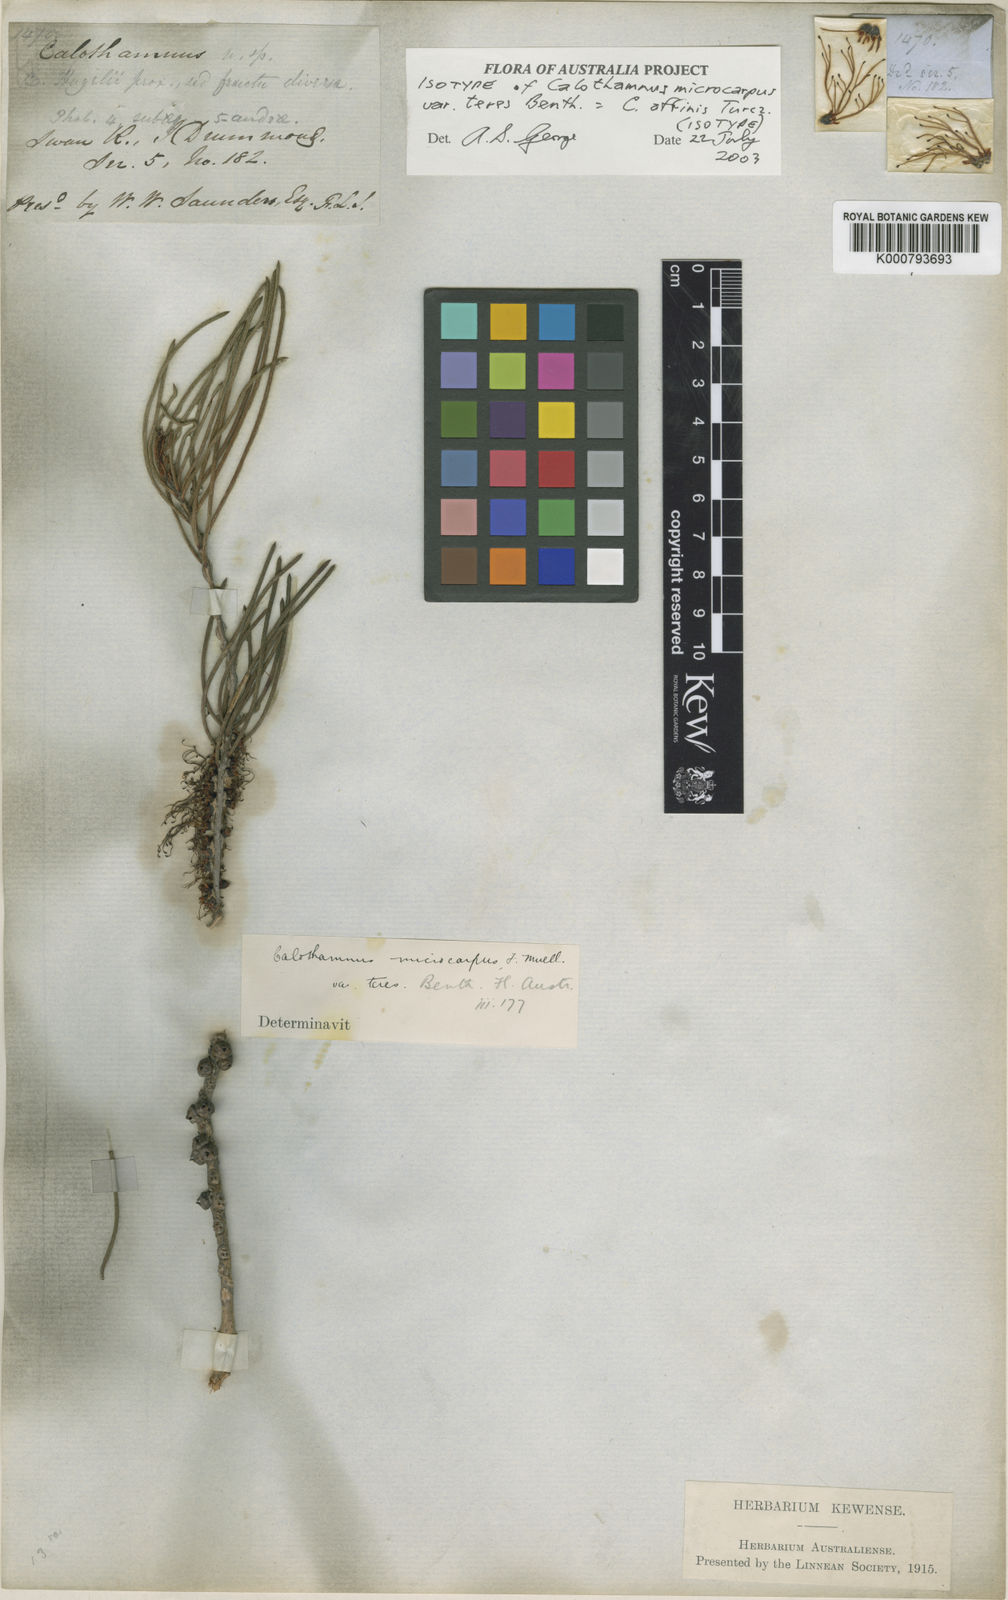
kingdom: Plantae
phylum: Tracheophyta
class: Magnoliopsida
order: Myrtales
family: Myrtaceae
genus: Melaleuca
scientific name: Melaleuca relativa
